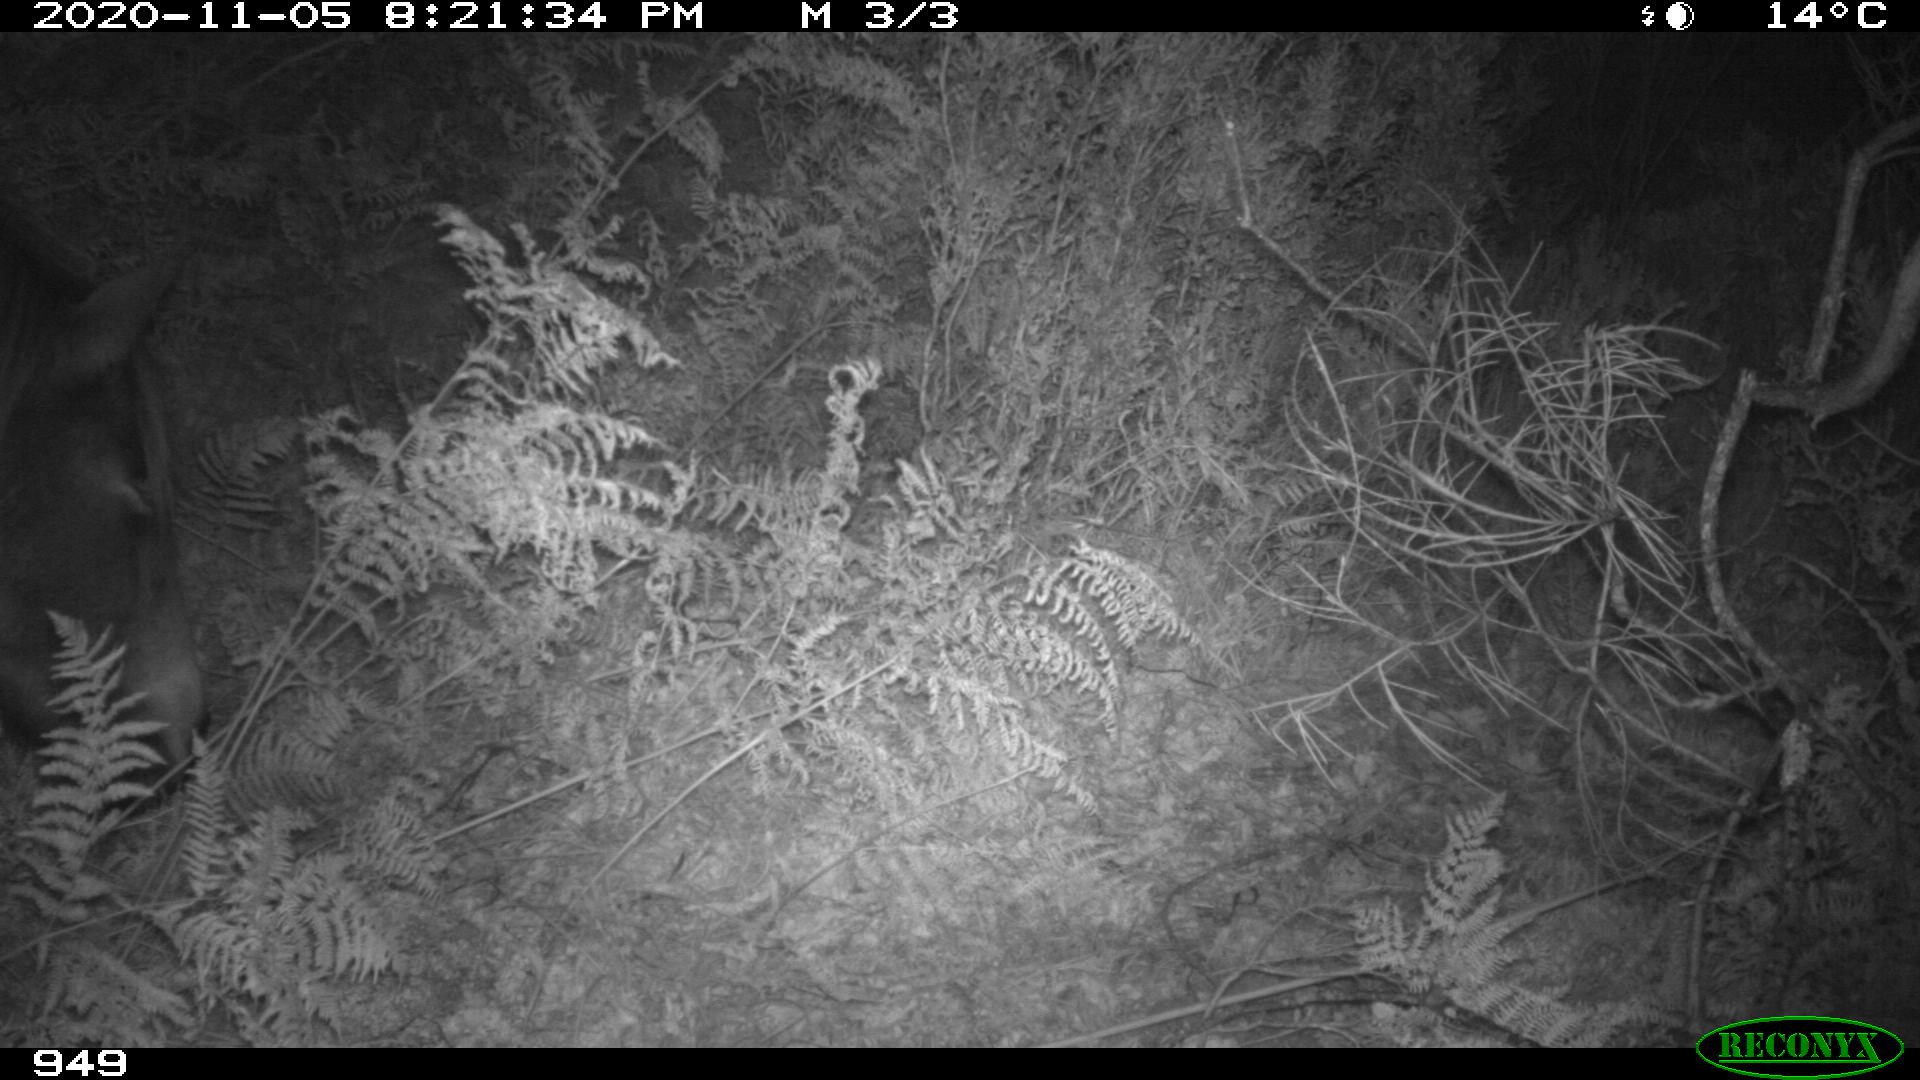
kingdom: Animalia
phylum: Chordata
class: Mammalia
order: Perissodactyla
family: Equidae
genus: Equus
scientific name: Equus caballus
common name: Horse
